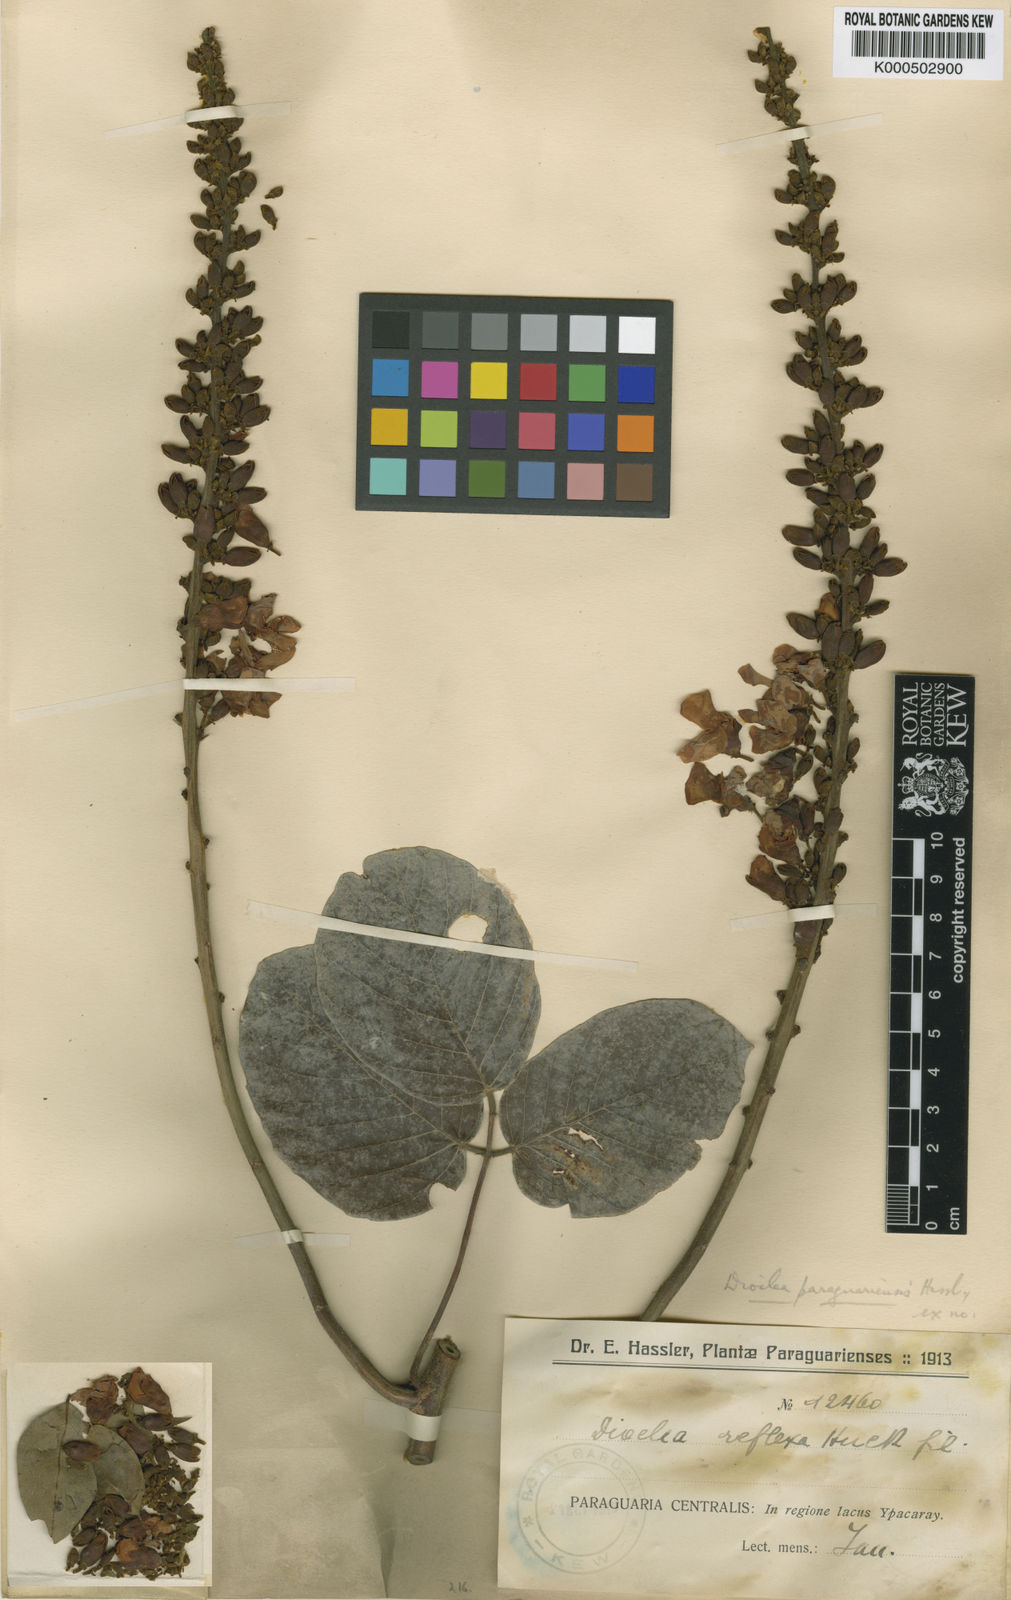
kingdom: Plantae
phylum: Tracheophyta
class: Magnoliopsida
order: Fabales
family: Fabaceae
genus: Macropsychanthus
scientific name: Macropsychanthus violaceus
